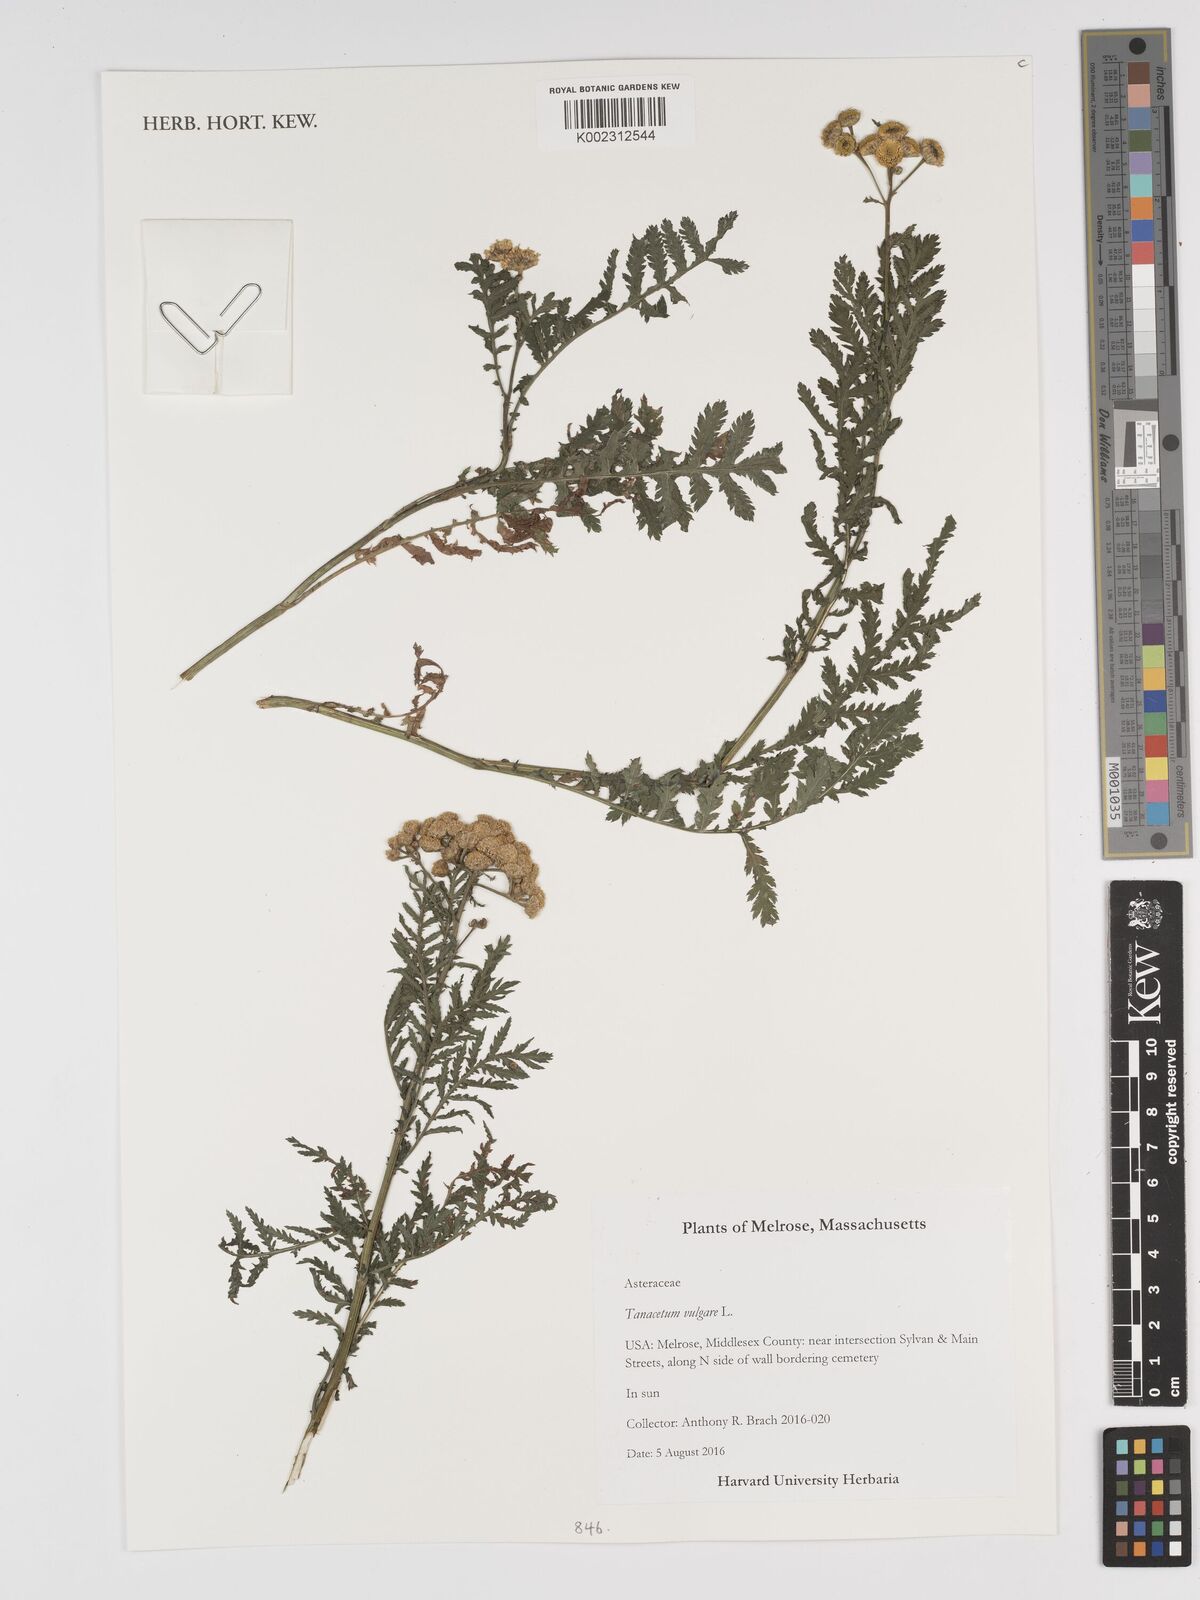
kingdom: Plantae
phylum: Tracheophyta
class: Magnoliopsida
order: Asterales
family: Asteraceae
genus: Tanacetum
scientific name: Tanacetum vulgare
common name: Common tansy
